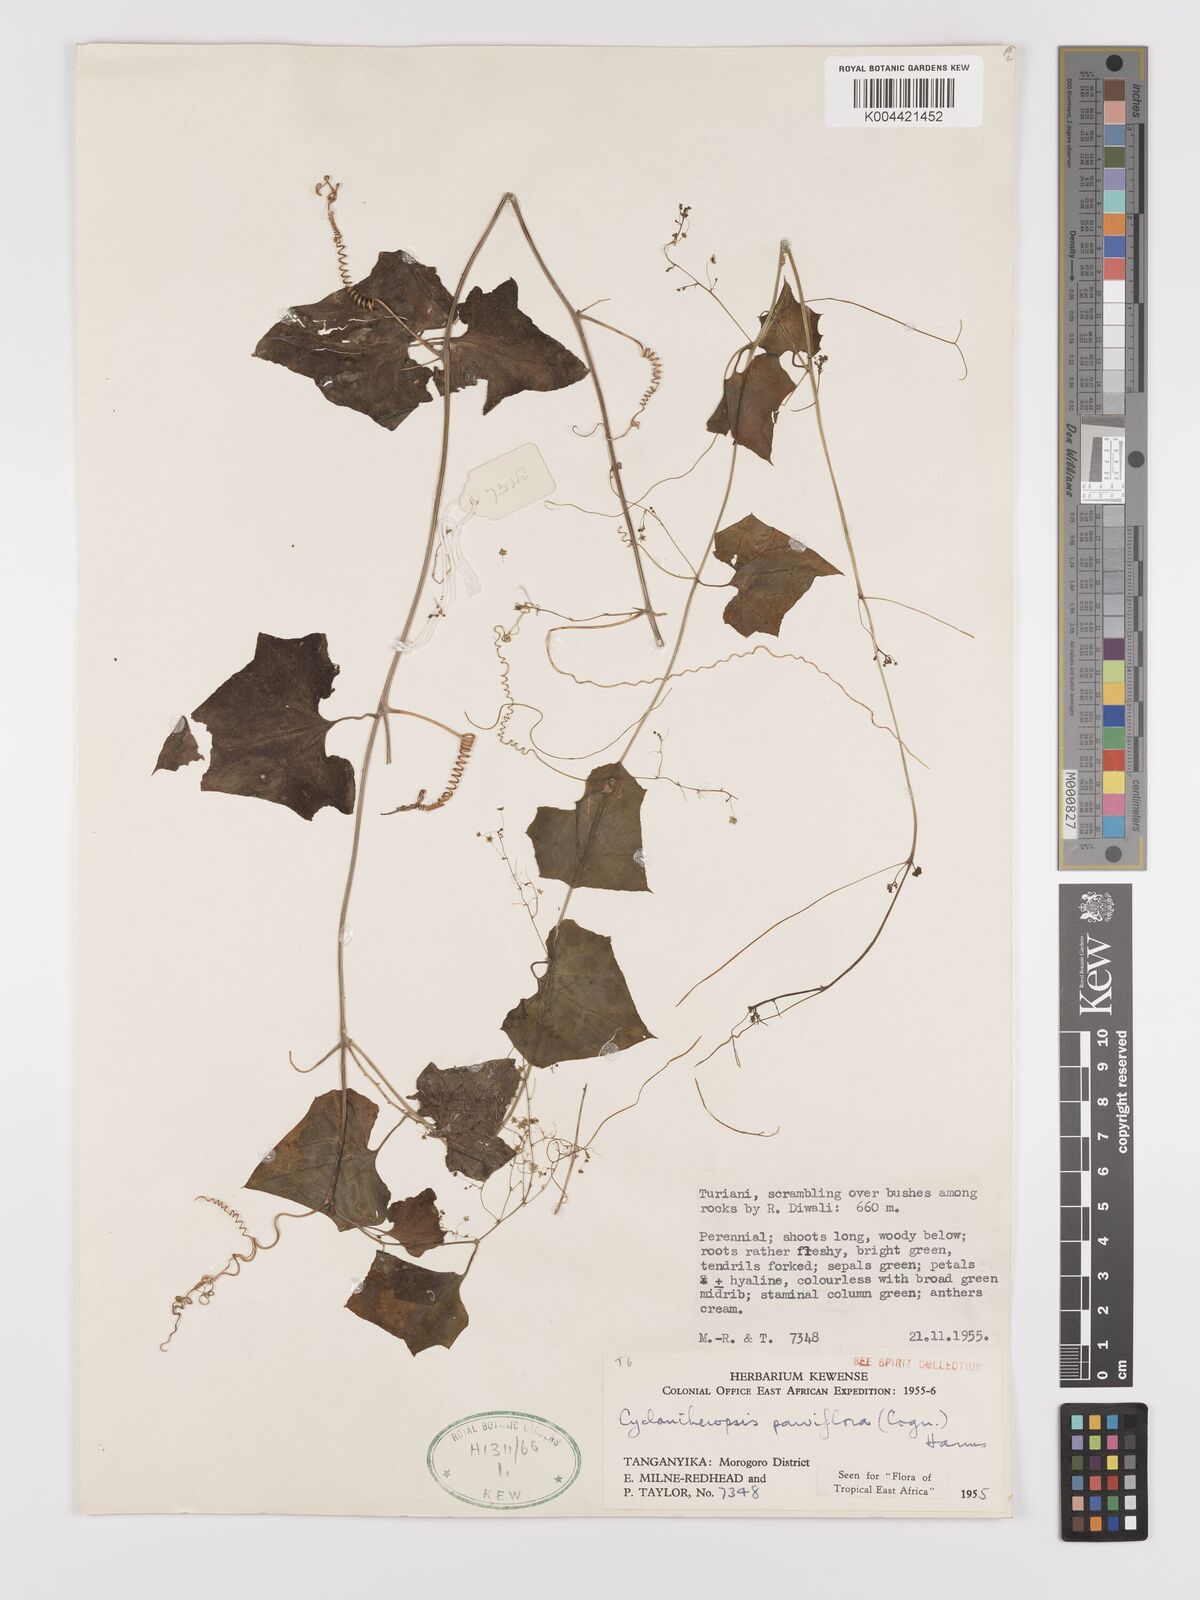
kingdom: Plantae
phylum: Tracheophyta
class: Magnoliopsida
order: Cucurbitales
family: Cucurbitaceae
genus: Cyclantheropsis
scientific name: Cyclantheropsis parviflora
